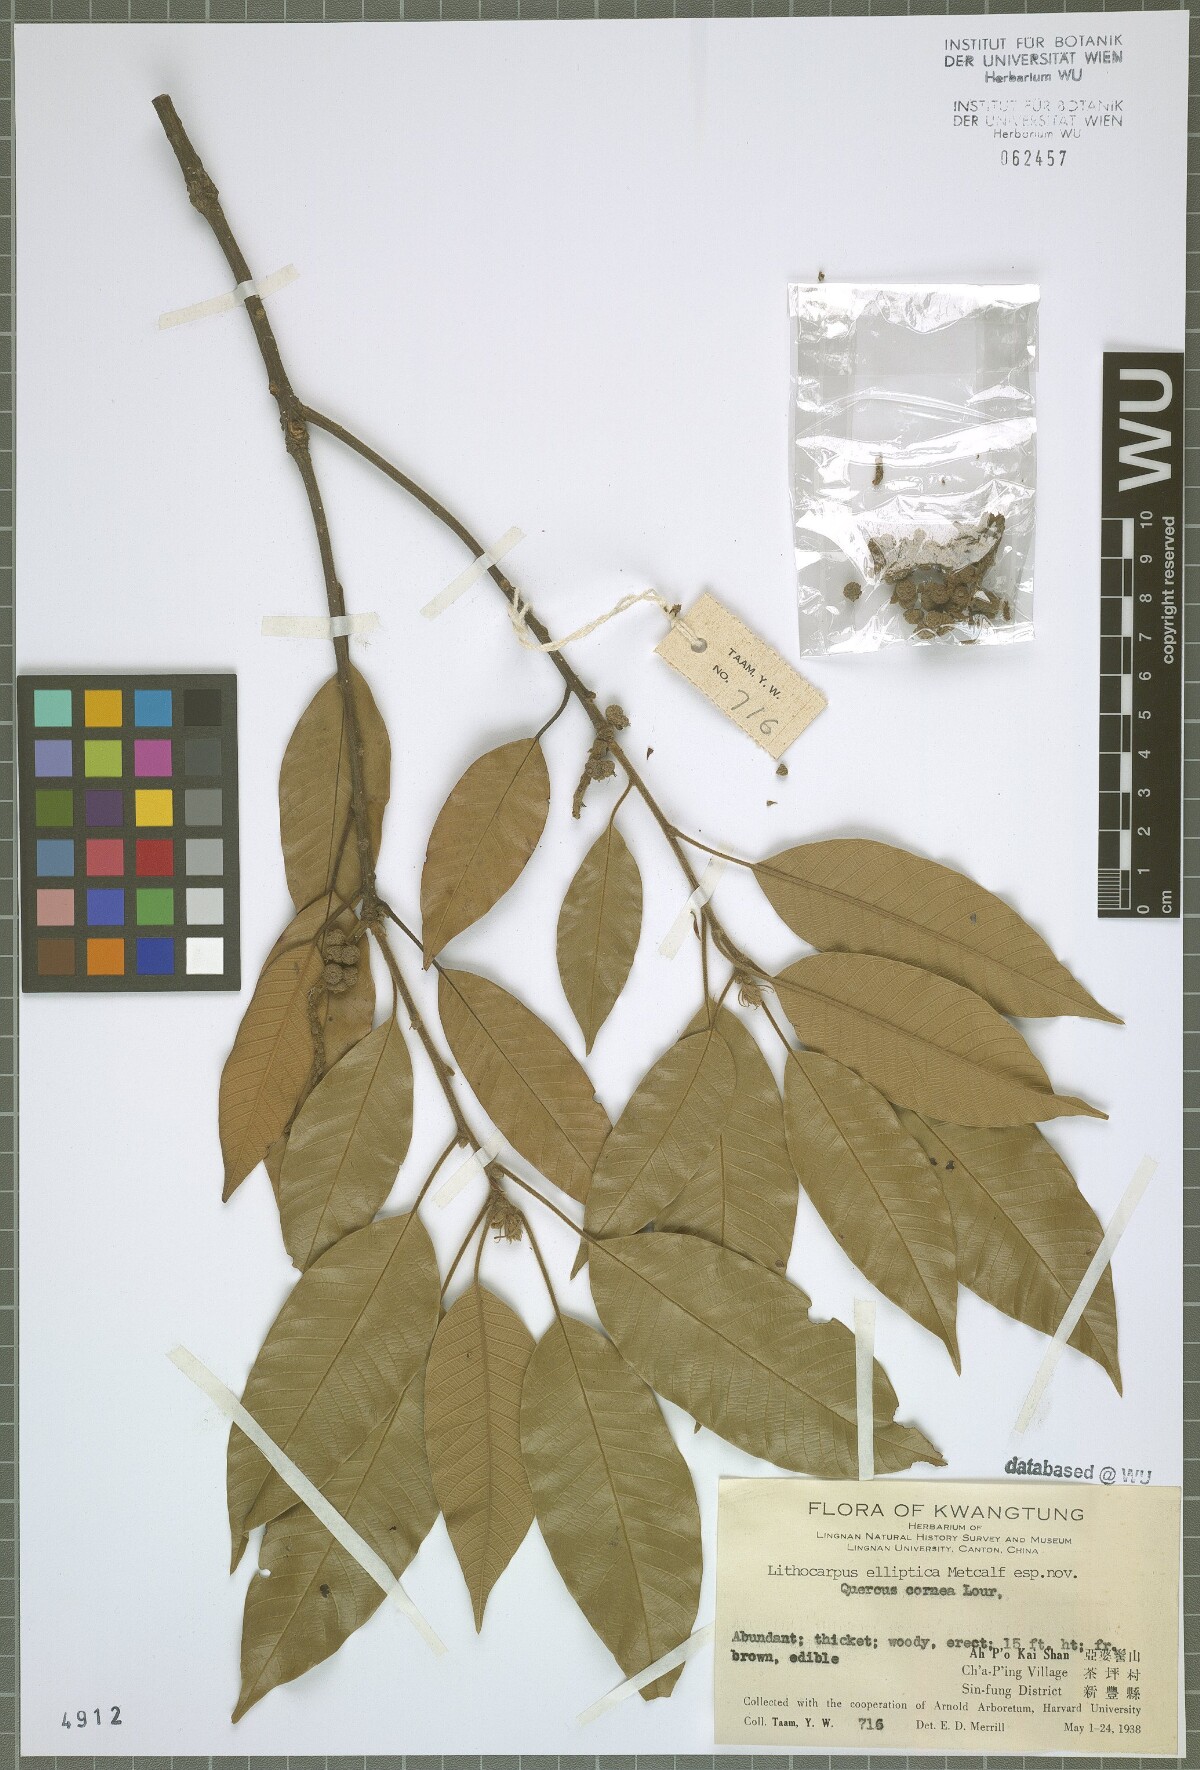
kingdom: Plantae
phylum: Tracheophyta
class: Magnoliopsida
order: Fagales
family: Fagaceae
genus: Lithocarpus
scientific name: Lithocarpus corneus
